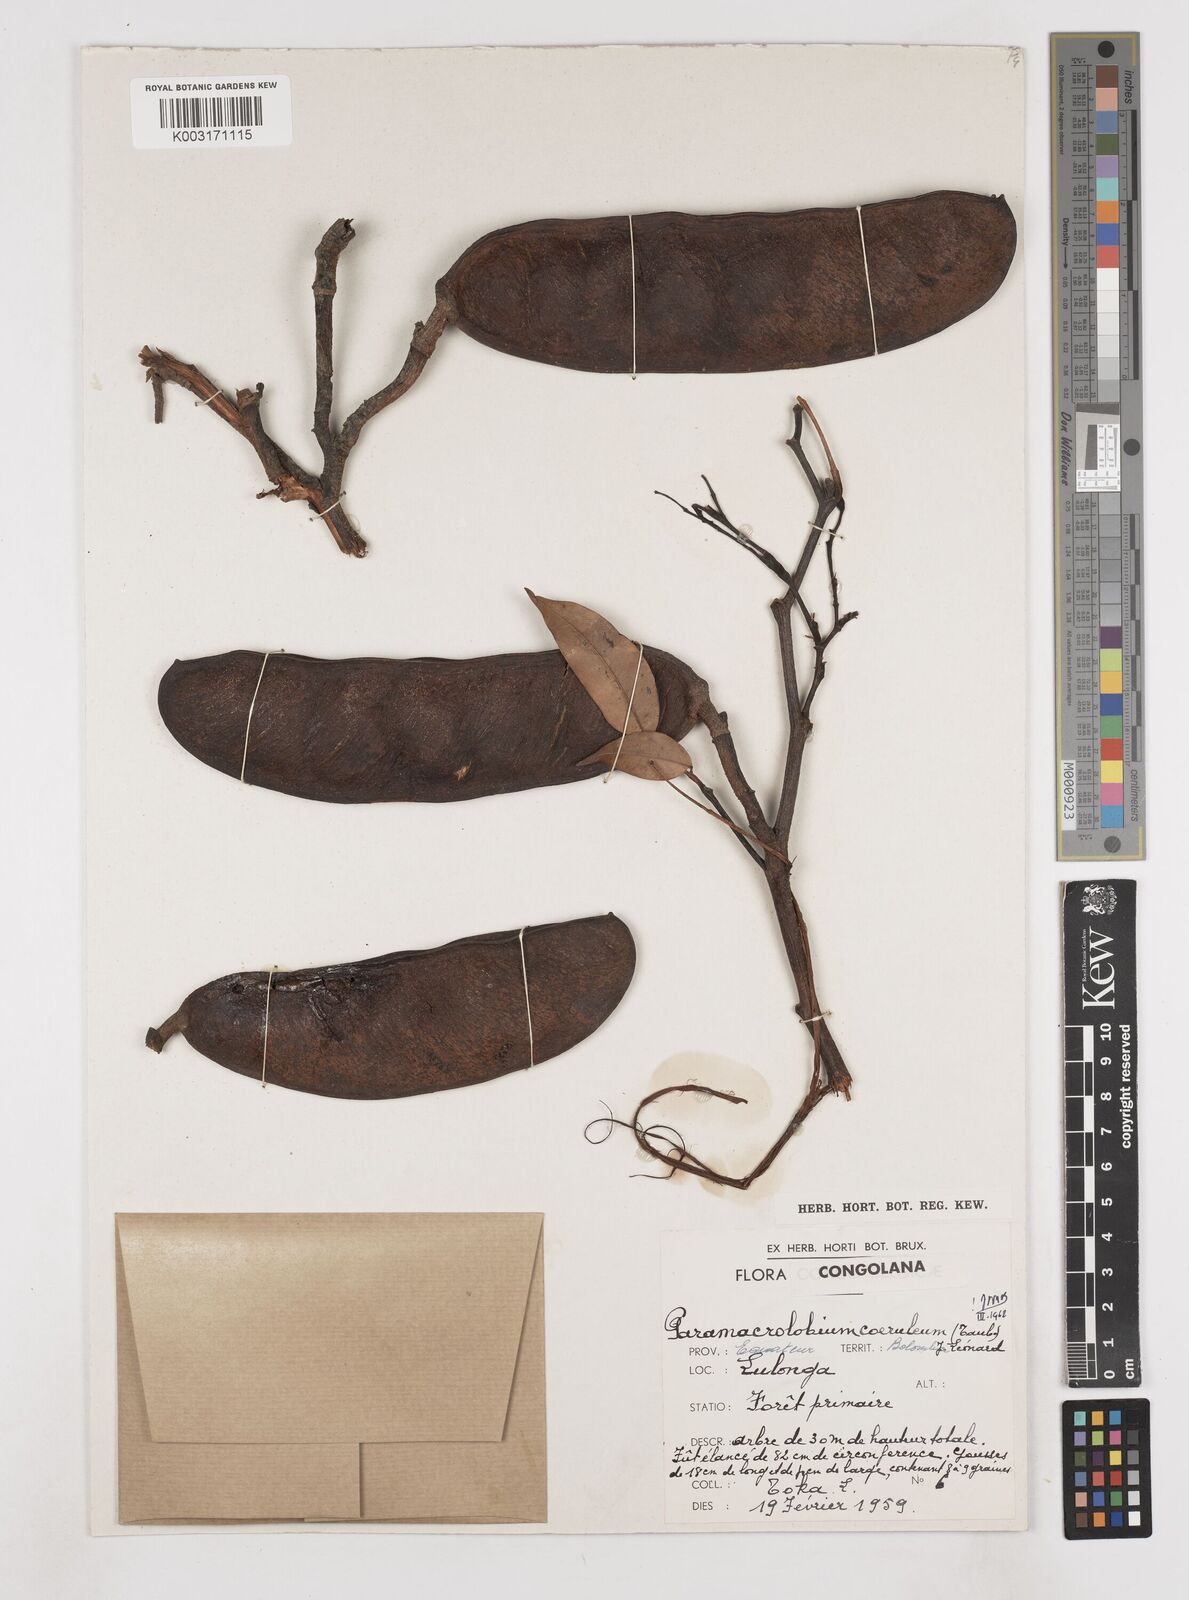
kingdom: Plantae
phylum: Tracheophyta
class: Magnoliopsida
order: Fabales
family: Fabaceae
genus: Paramacrolobium
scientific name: Paramacrolobium coeruleum
